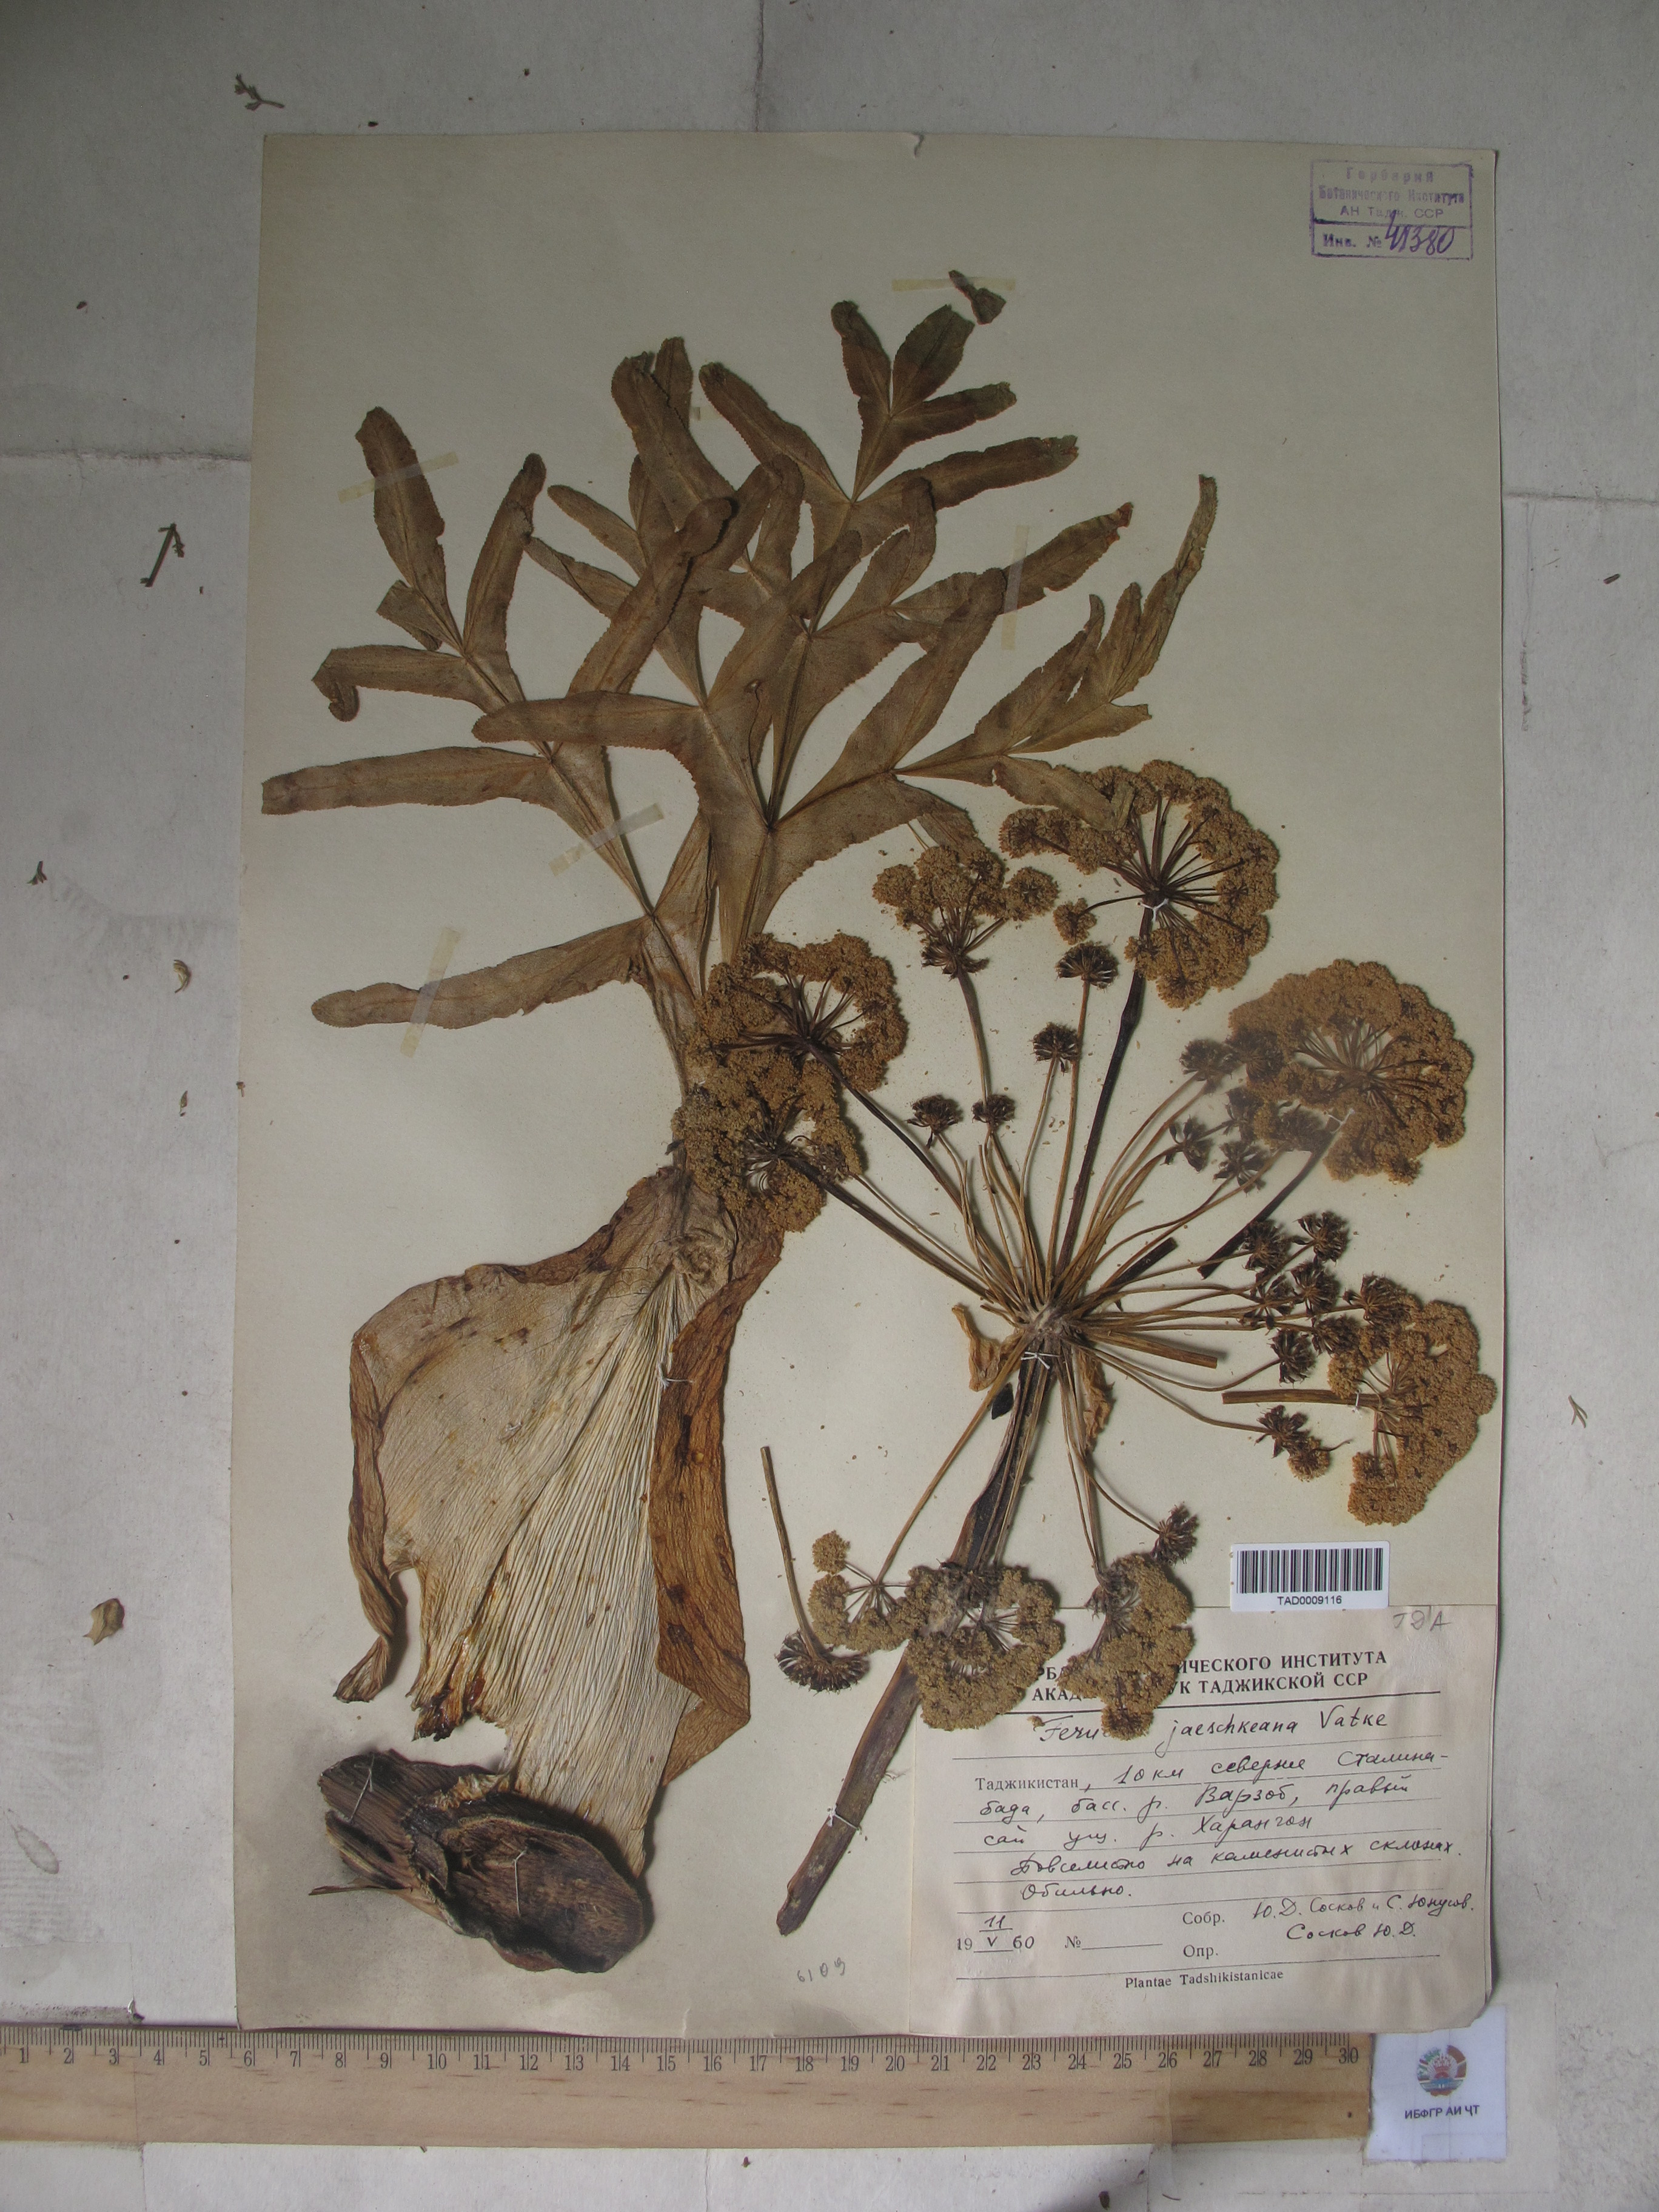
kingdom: Plantae
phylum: Tracheophyta
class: Magnoliopsida
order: Apiales
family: Apiaceae
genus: Ferula
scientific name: Ferula jaeschkeana
